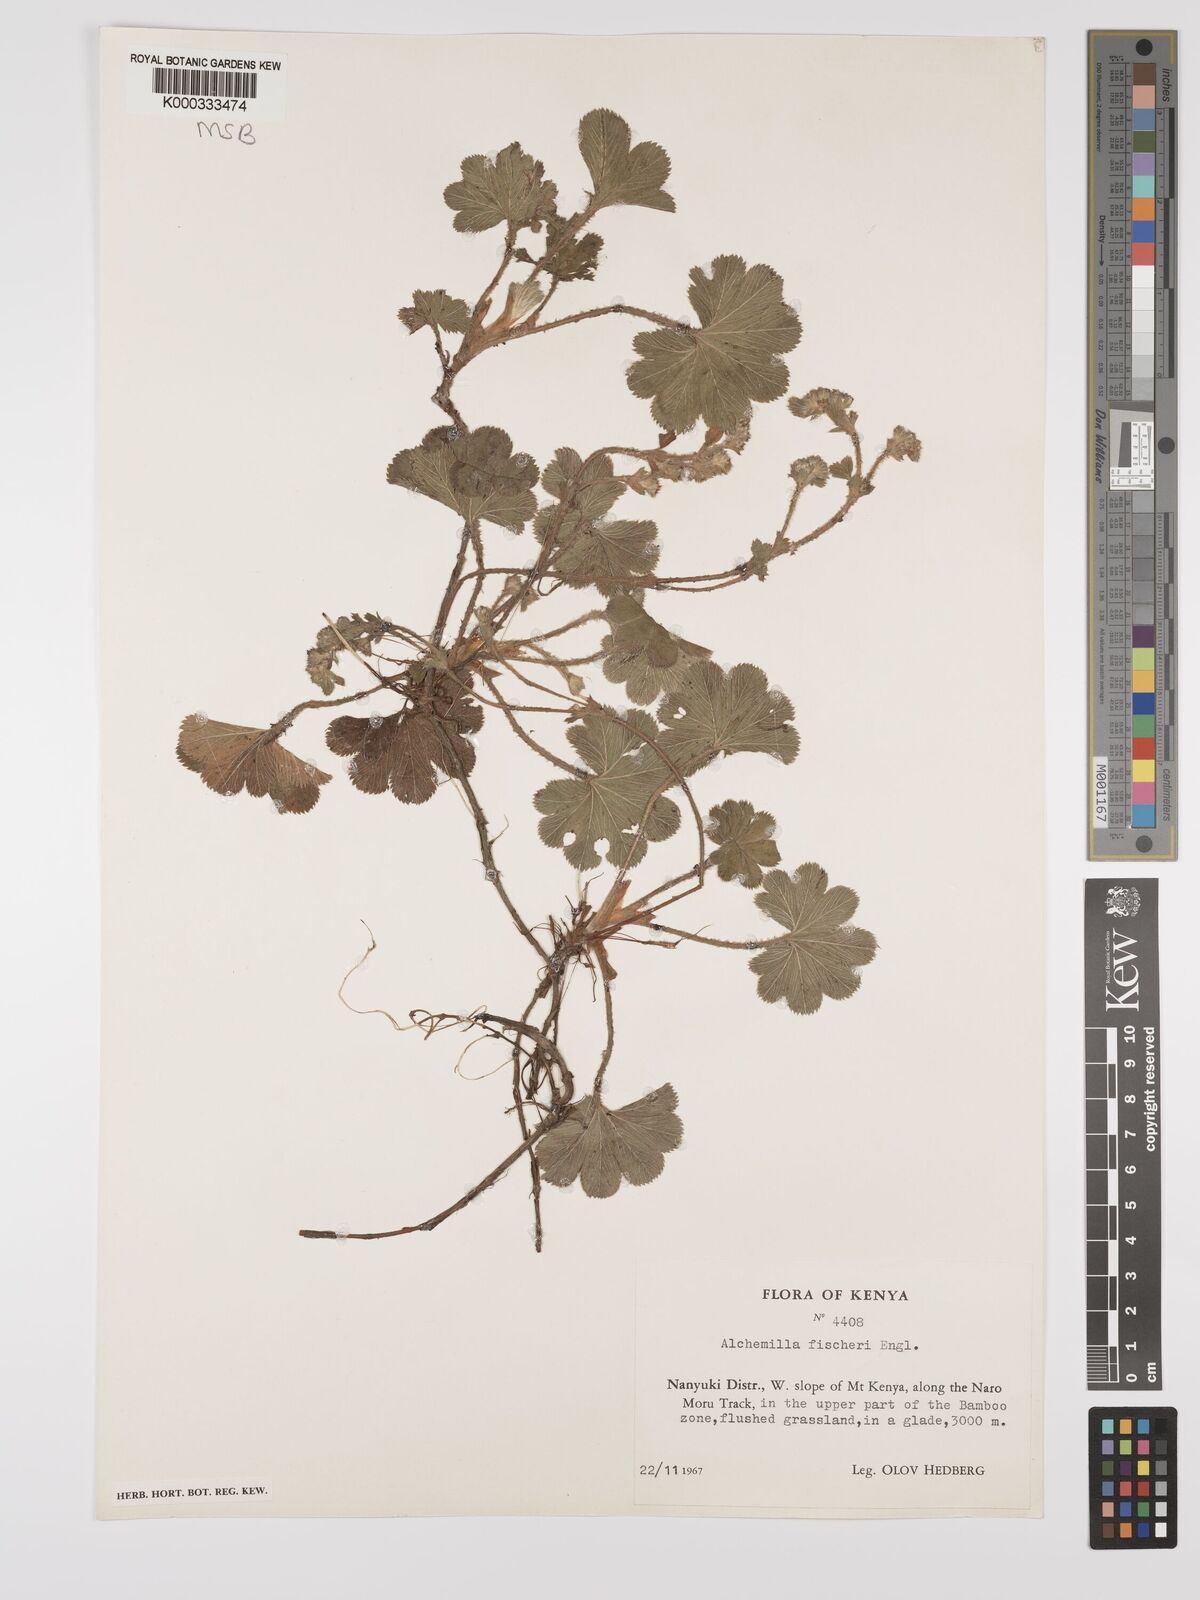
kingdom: Plantae
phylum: Tracheophyta
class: Magnoliopsida
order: Rosales
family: Rosaceae
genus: Alchemilla
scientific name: Alchemilla fischeri
